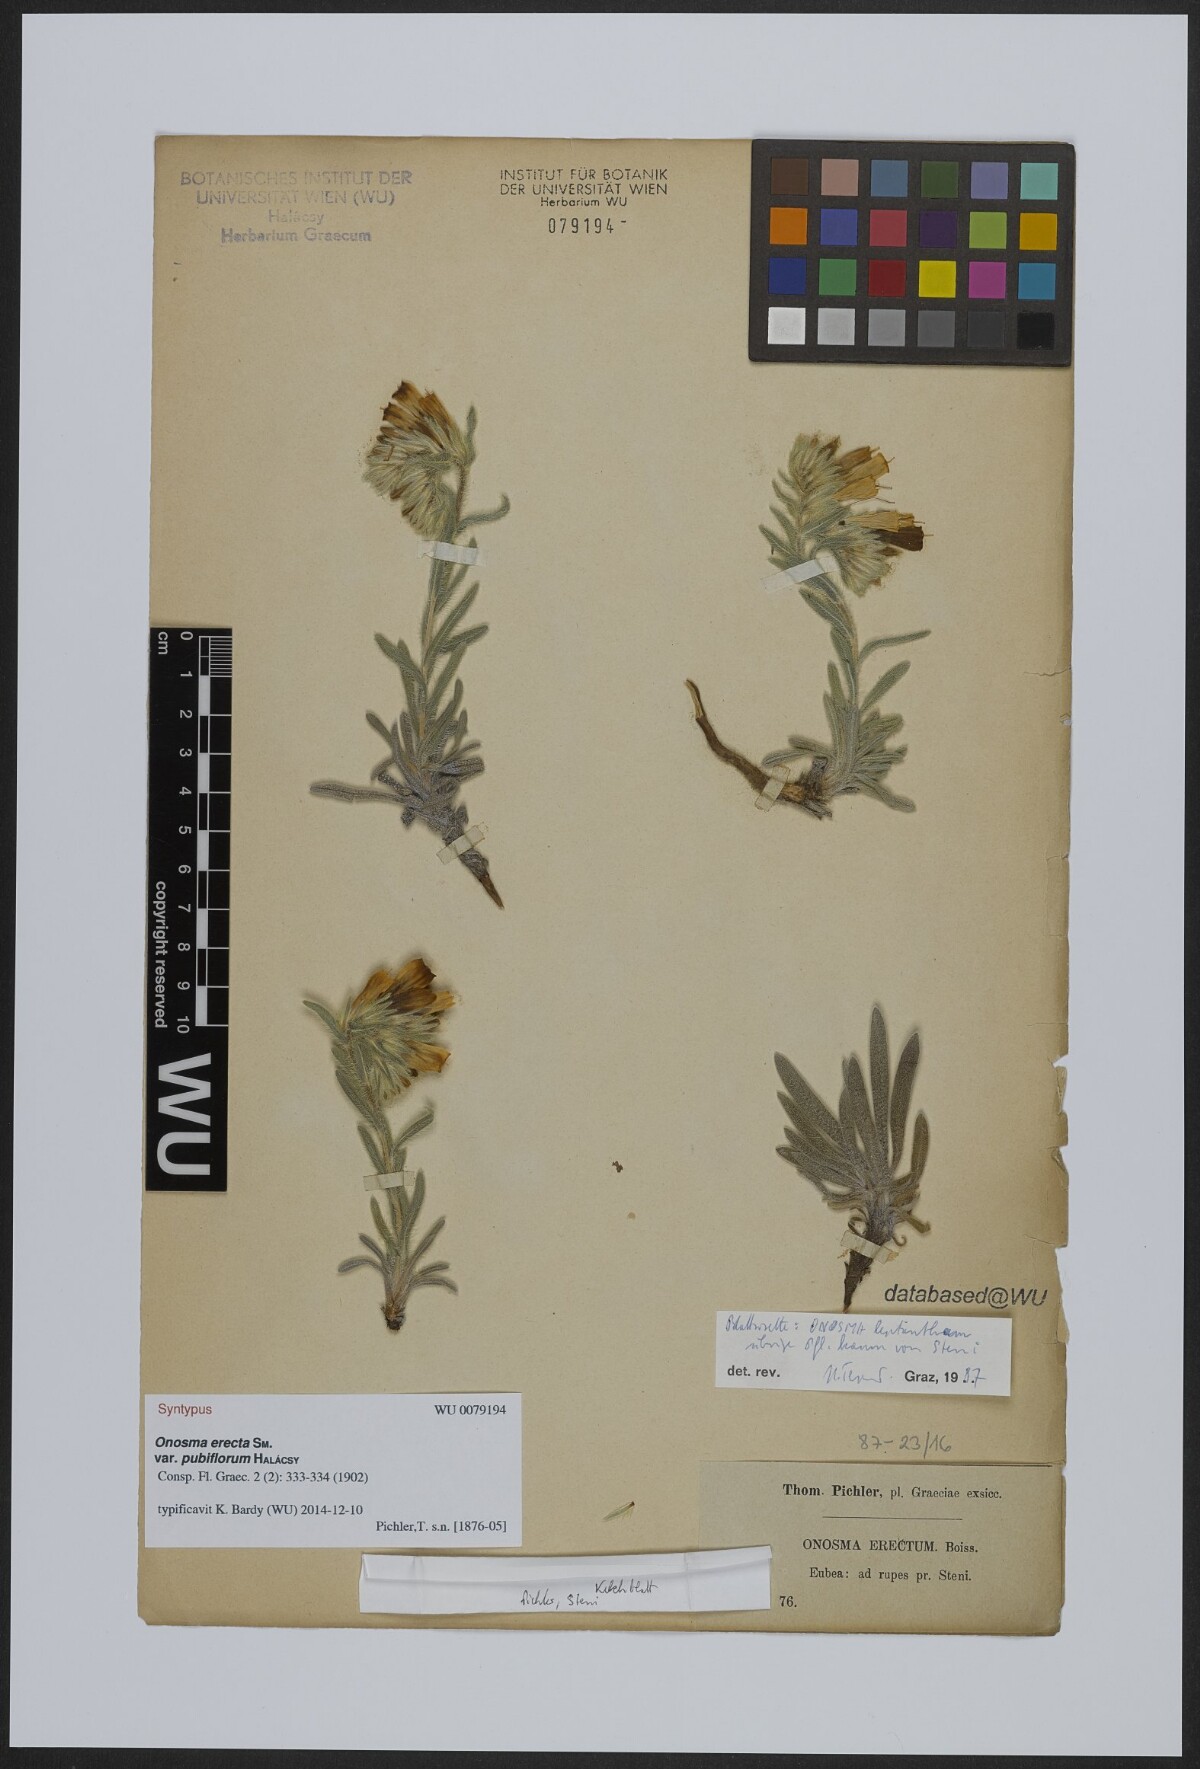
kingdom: Plantae
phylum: Tracheophyta
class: Magnoliopsida
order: Boraginales
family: Boraginaceae
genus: Onosma
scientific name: Onosma kaheirei
